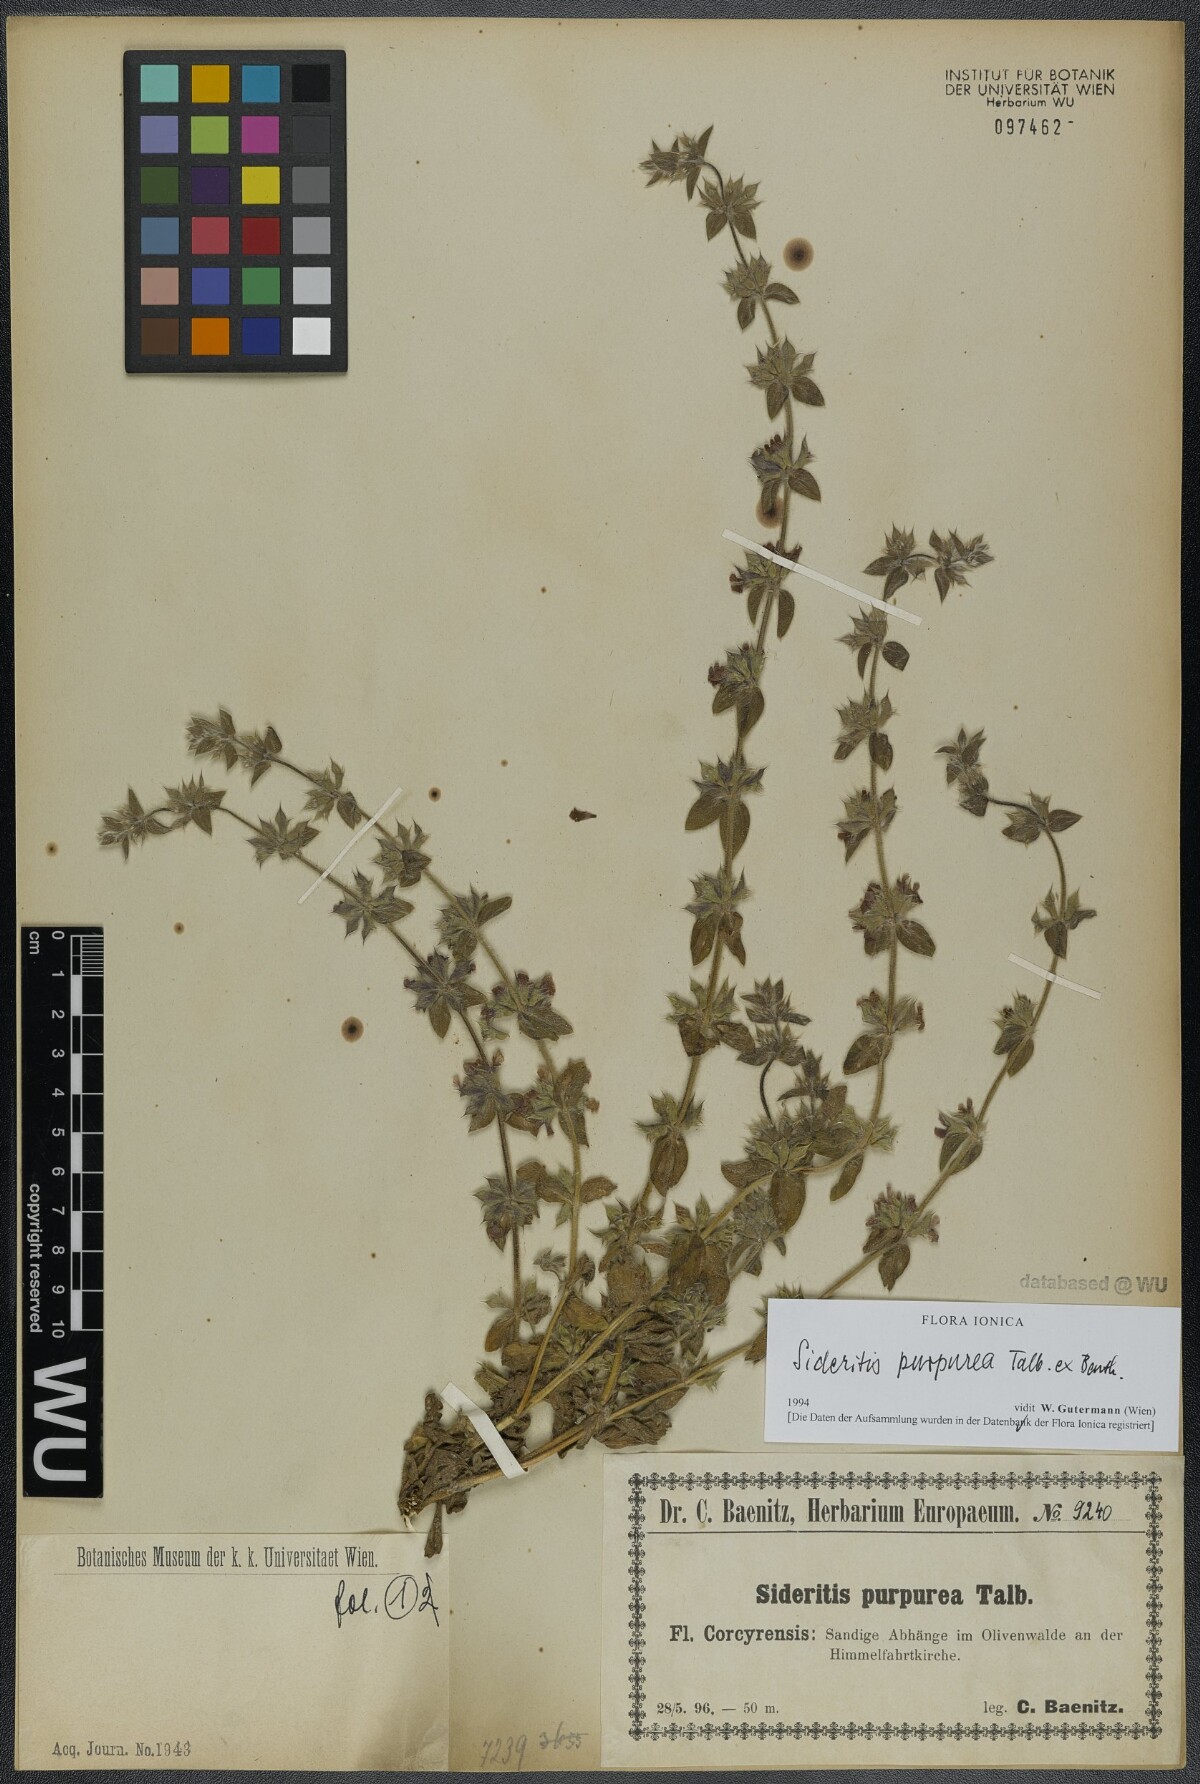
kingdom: Plantae
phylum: Tracheophyta
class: Magnoliopsida
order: Lamiales
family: Lamiaceae
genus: Sideritis
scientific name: Sideritis romana
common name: Simplebeak ironwort
